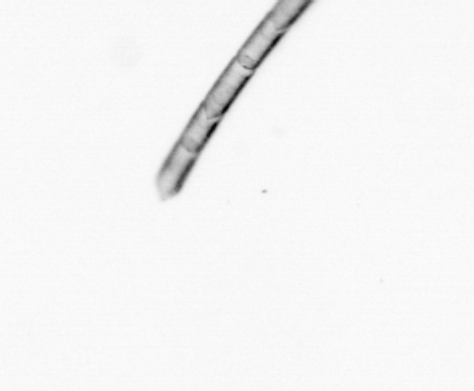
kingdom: Chromista
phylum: Ochrophyta
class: Bacillariophyceae
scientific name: Bacillariophyceae
